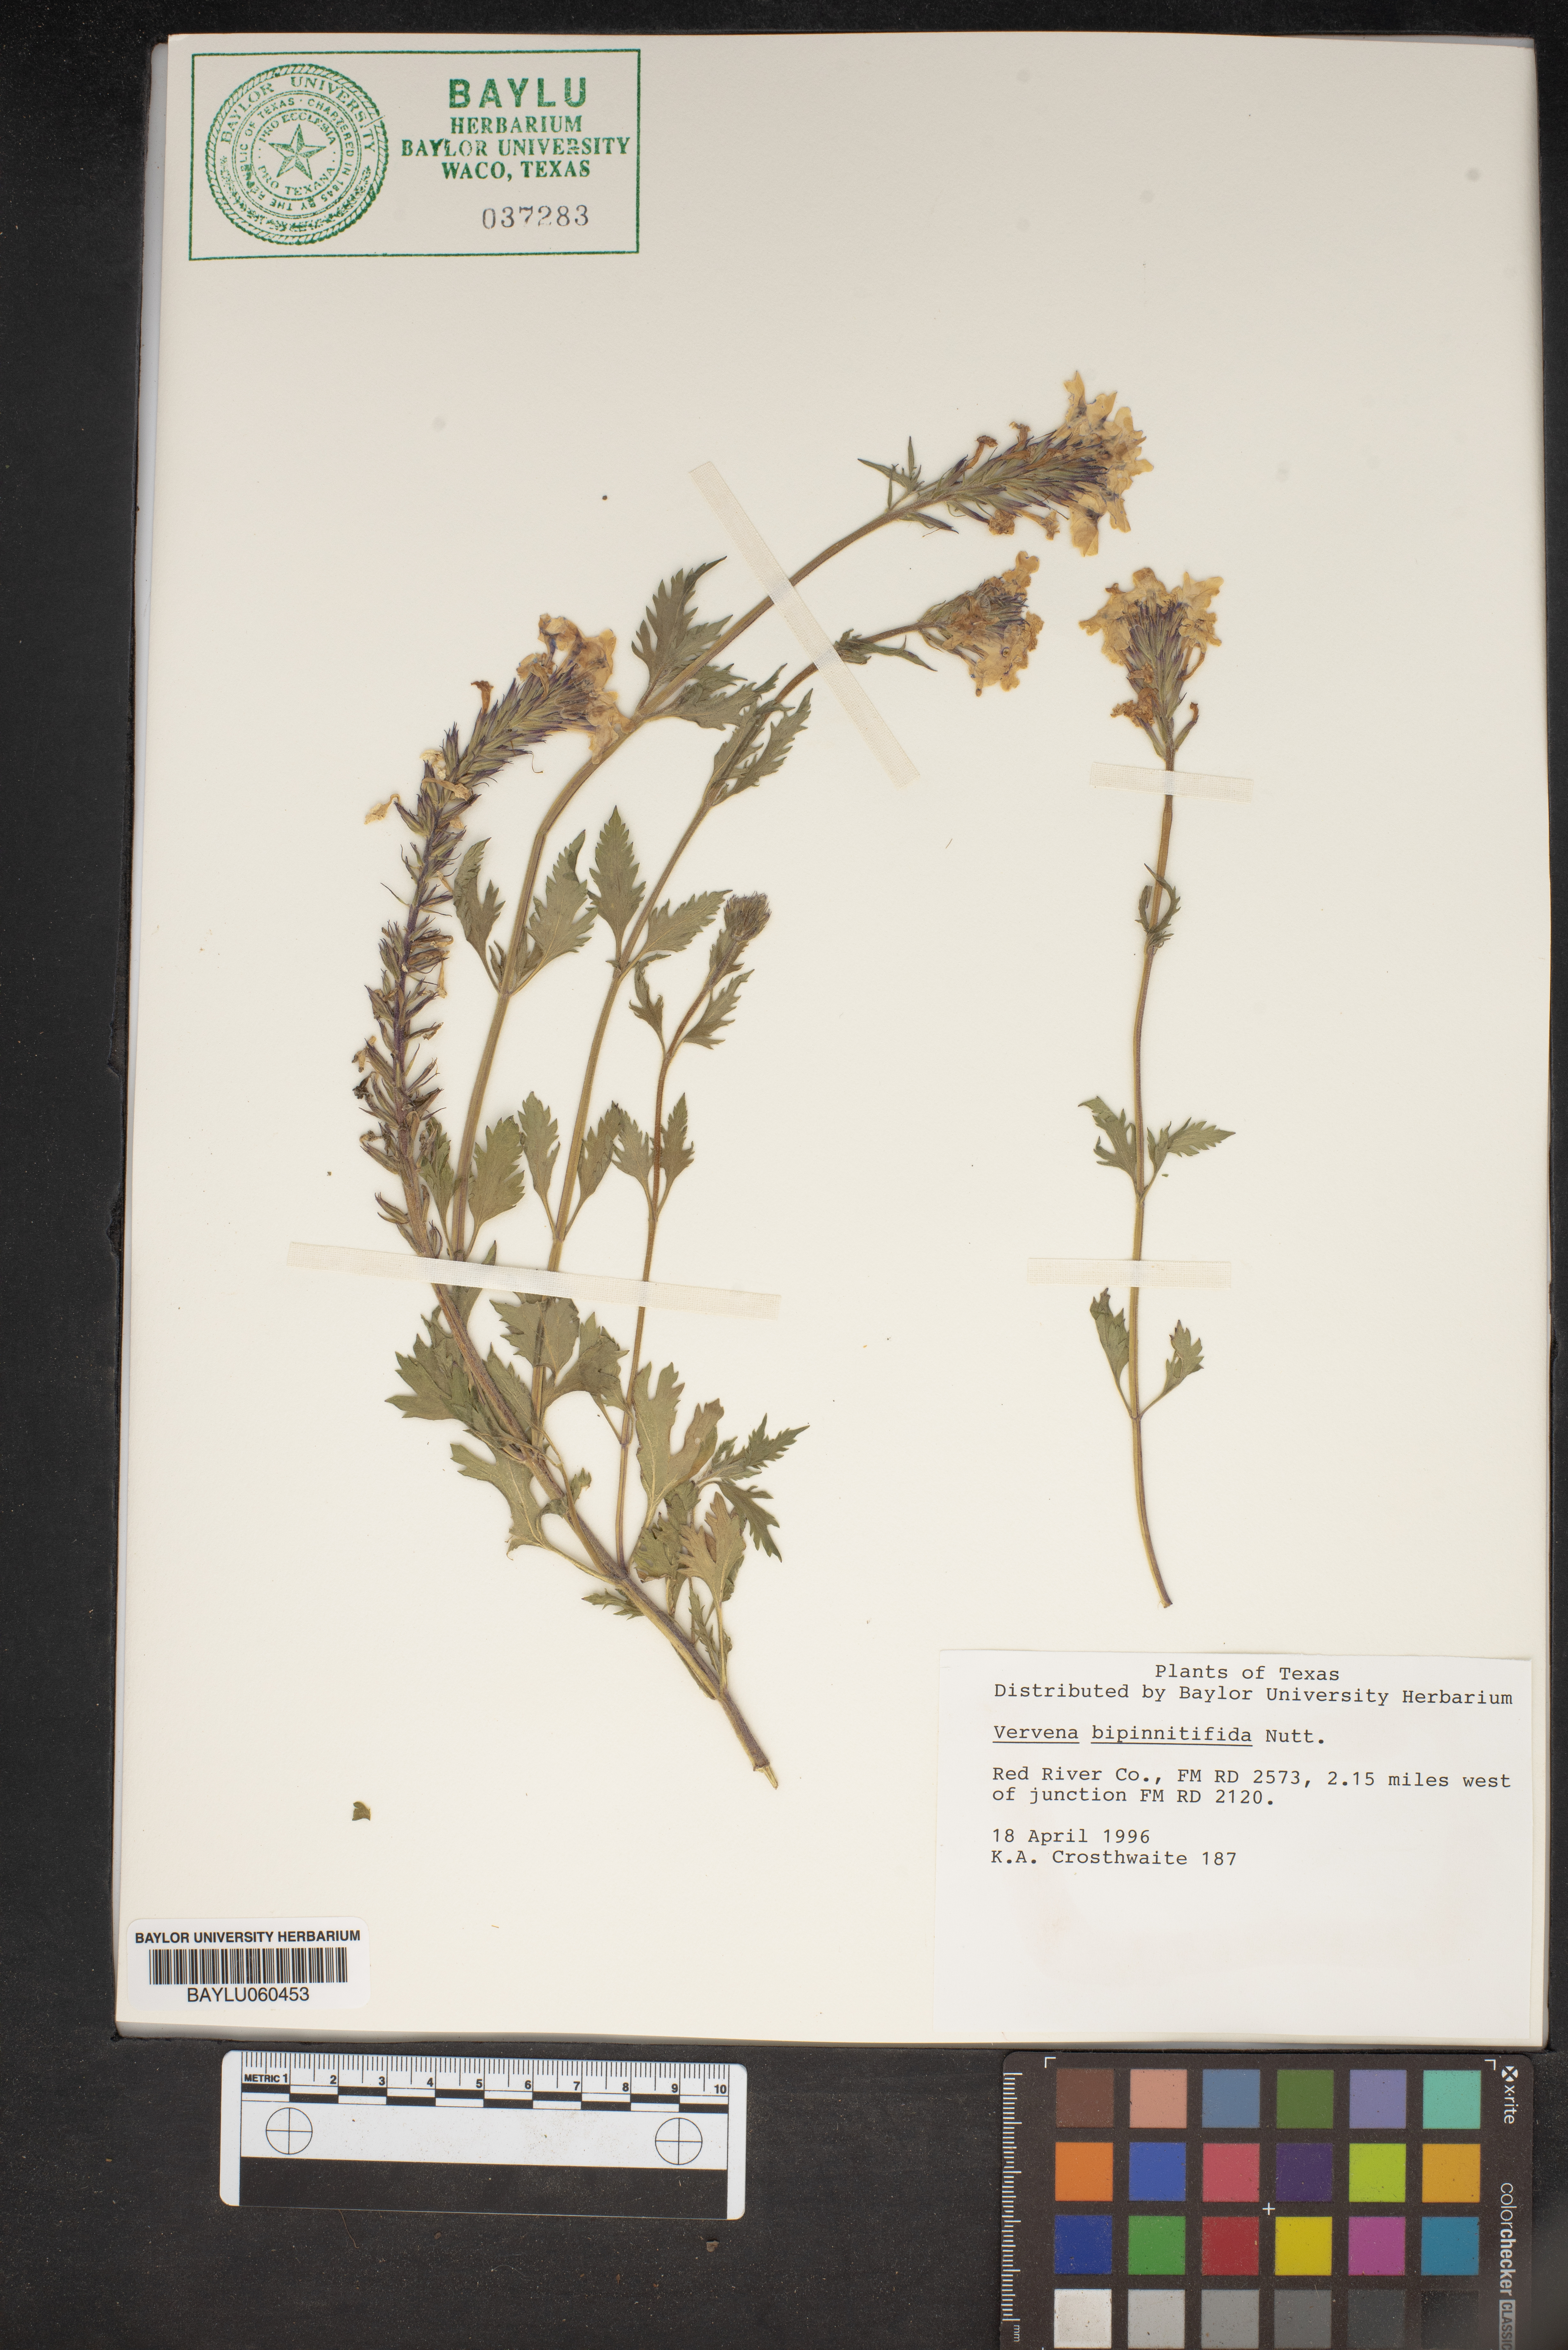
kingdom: Plantae
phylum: Tracheophyta
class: Magnoliopsida
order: Lamiales
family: Verbenaceae
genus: Verbena
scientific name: Verbena bipinnatifida
